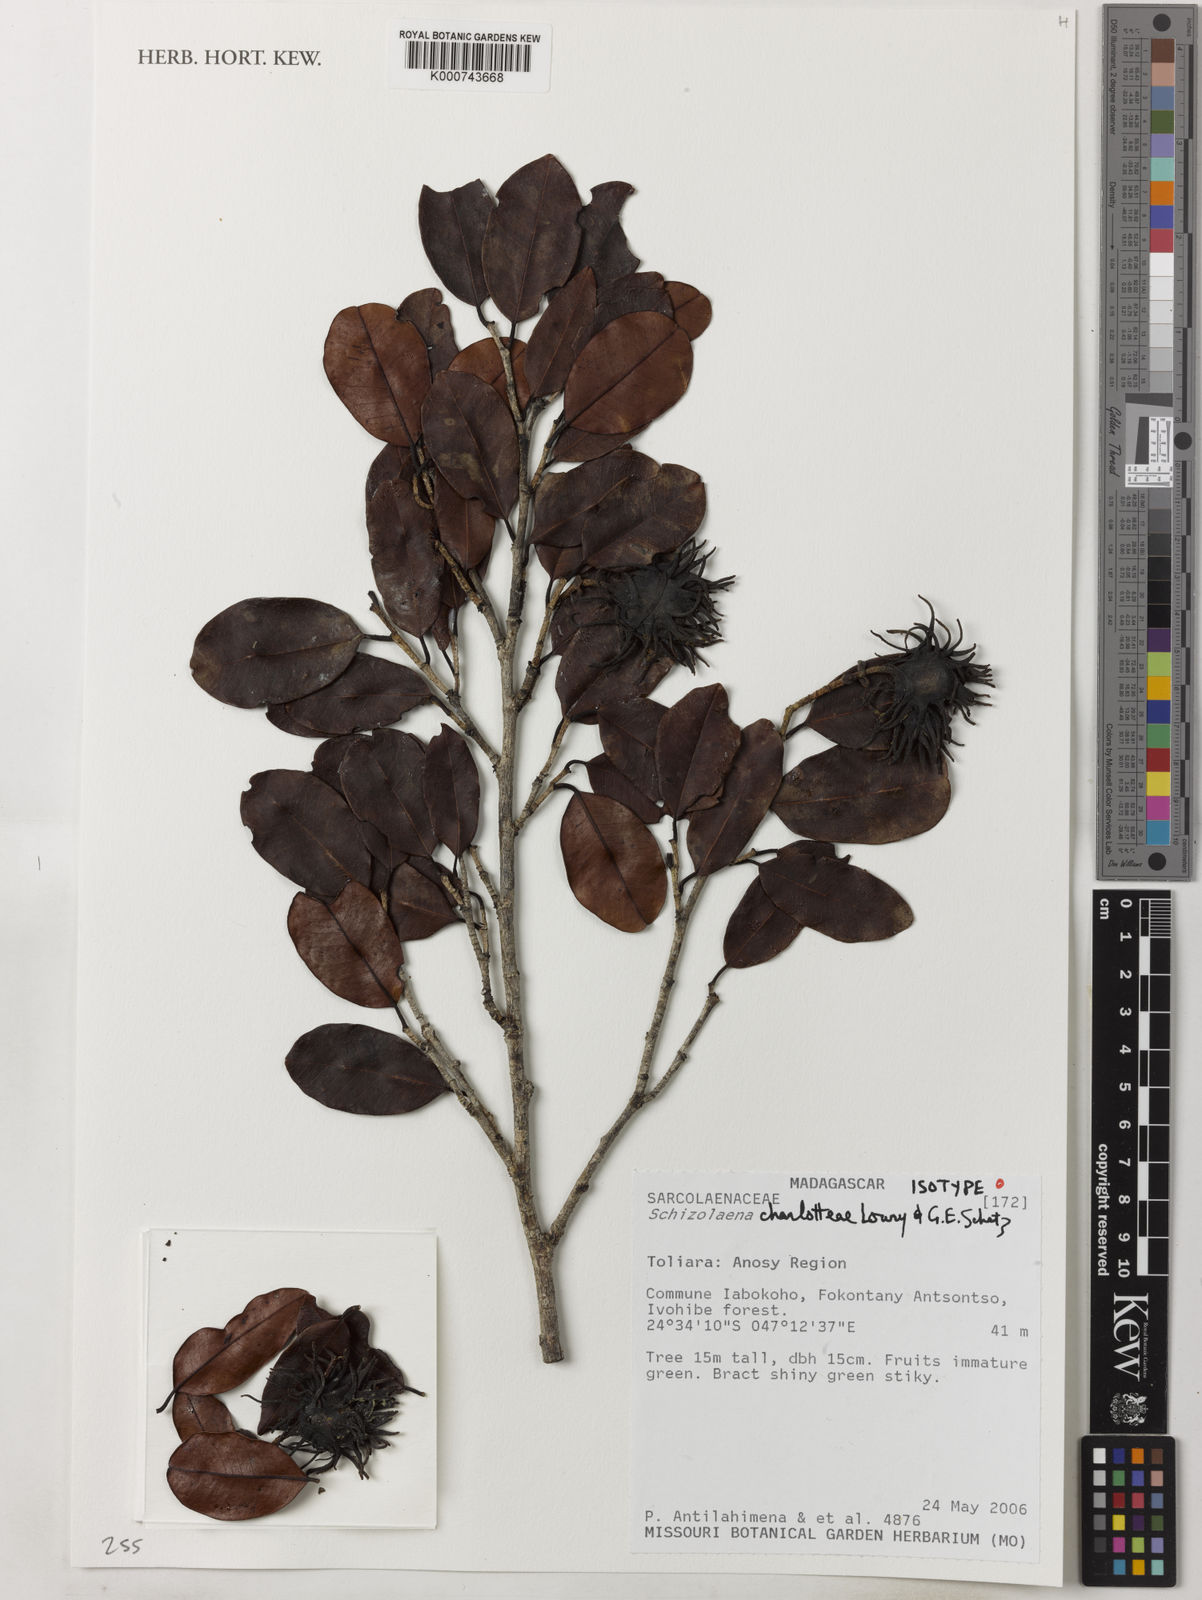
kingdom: Plantae
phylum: Tracheophyta
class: Magnoliopsida
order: Malvales
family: Sarcolaenaceae
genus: Schizolaena
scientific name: Schizolaena charlotteae
